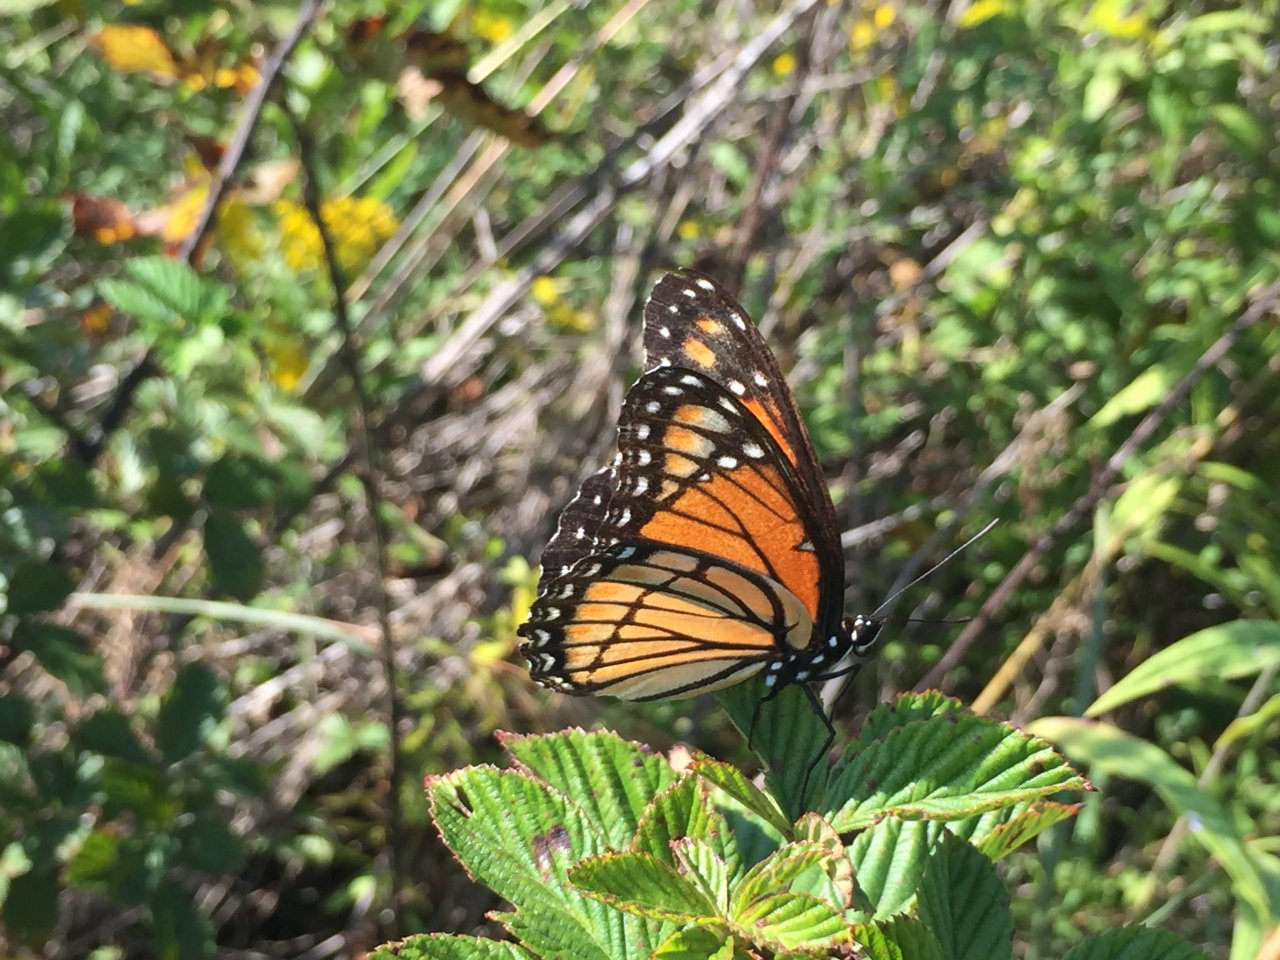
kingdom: Animalia
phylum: Arthropoda
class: Insecta
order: Lepidoptera
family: Nymphalidae
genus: Limenitis
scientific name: Limenitis archippus
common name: Viceroy
